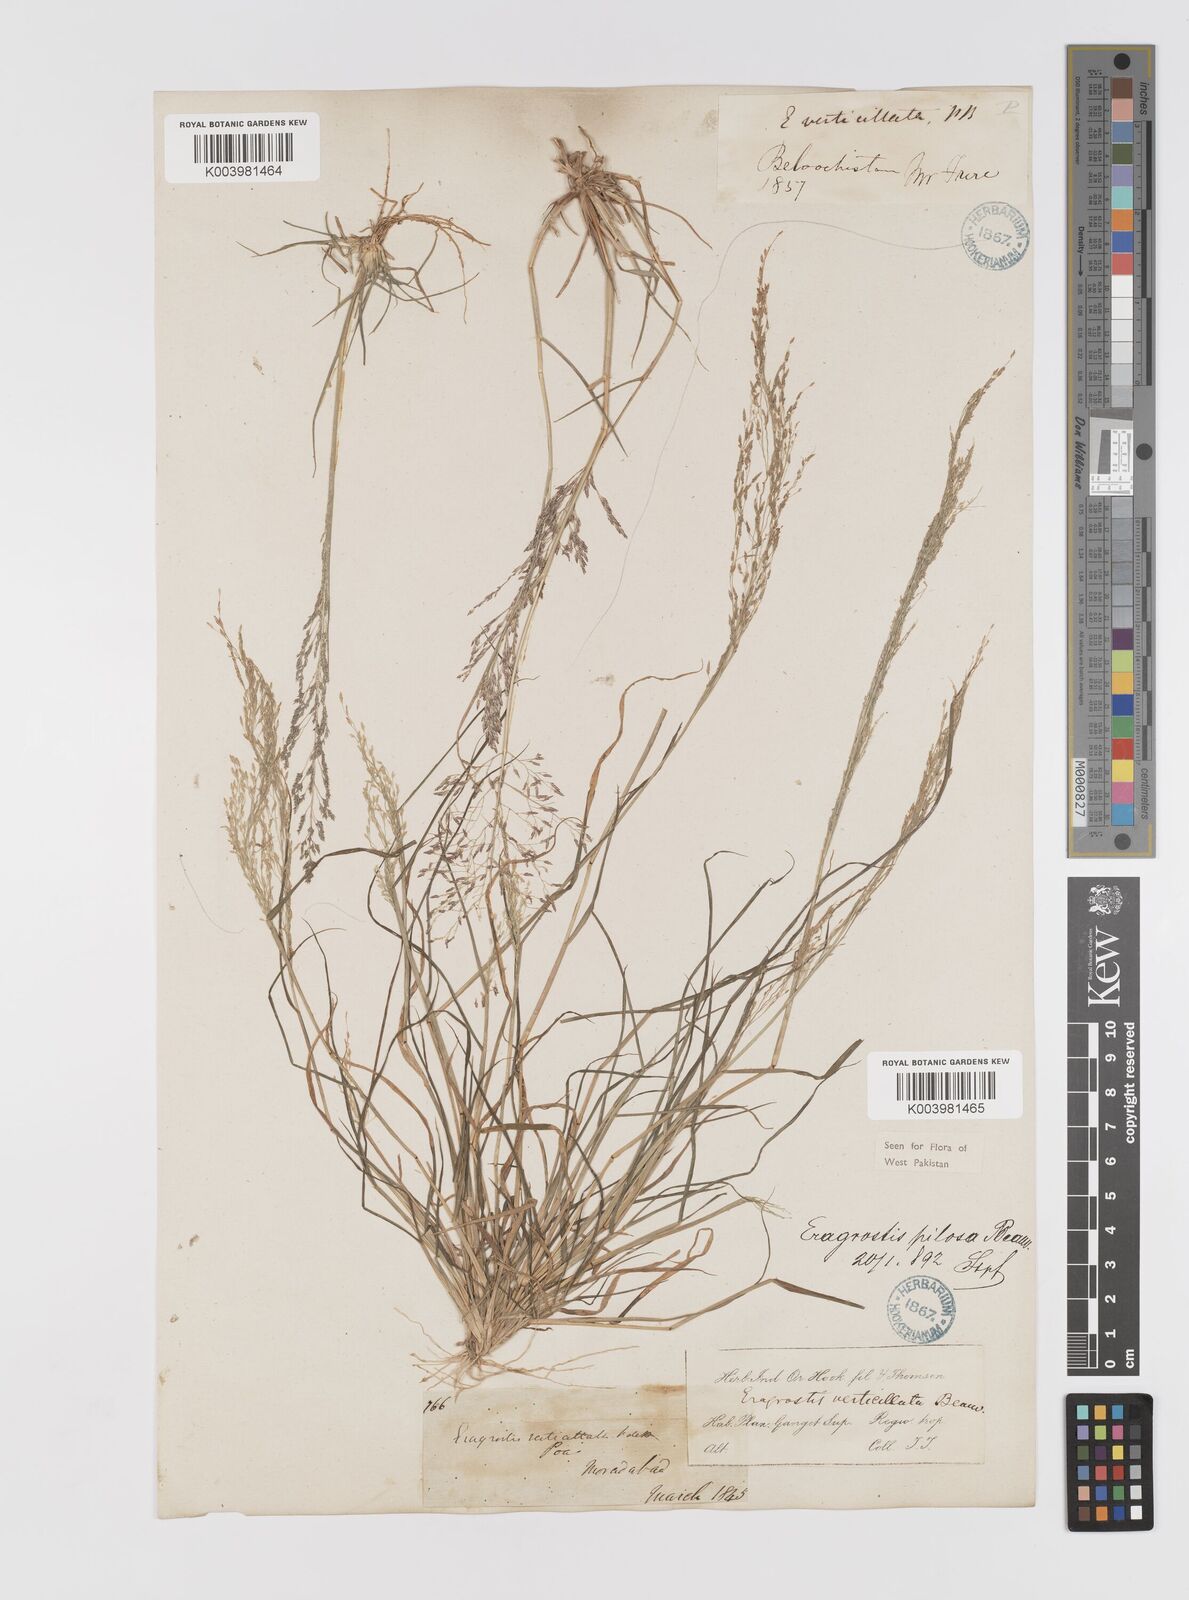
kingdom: Plantae
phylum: Tracheophyta
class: Liliopsida
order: Poales
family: Poaceae
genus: Eragrostis
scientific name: Eragrostis pilosa
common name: Indian lovegrass
